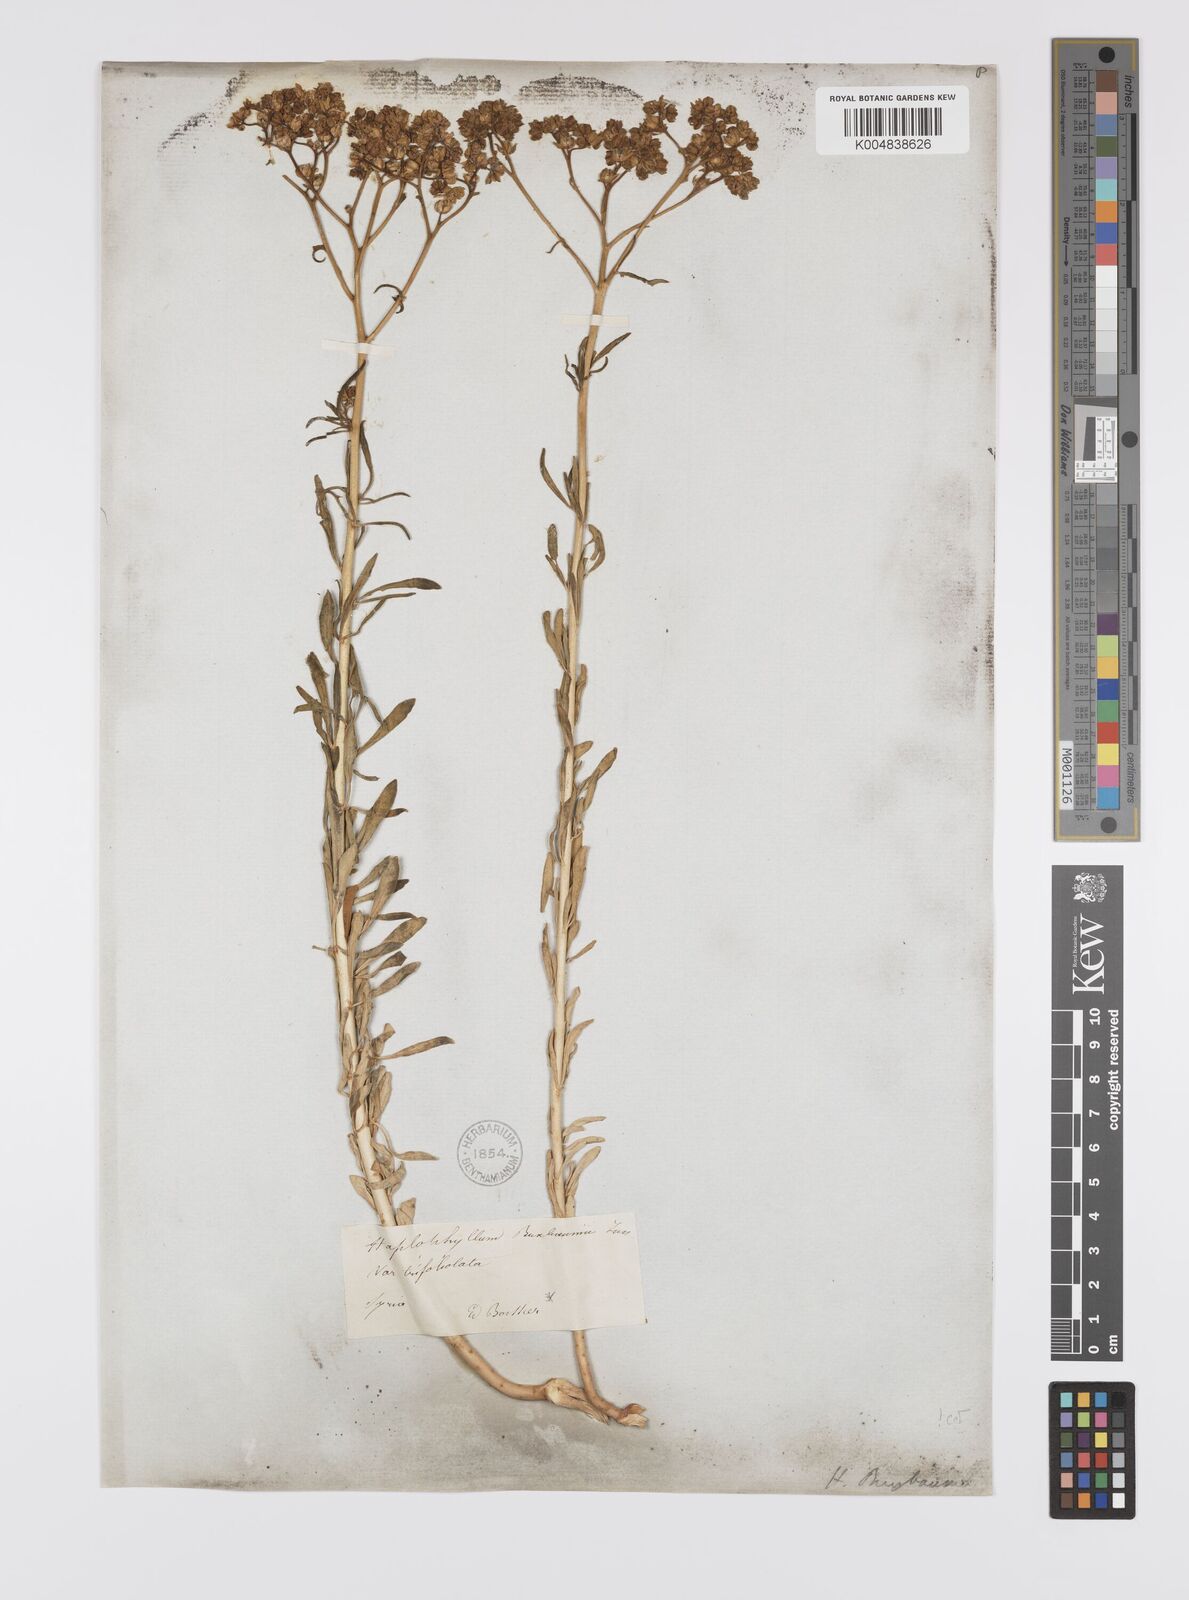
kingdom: Plantae
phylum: Tracheophyta
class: Magnoliopsida
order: Sapindales
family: Rutaceae
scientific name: Rutaceae
